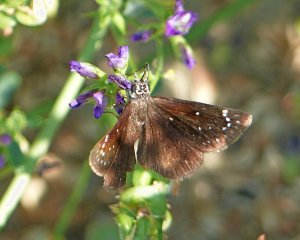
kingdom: Animalia
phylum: Arthropoda
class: Insecta
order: Lepidoptera
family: Hesperiidae
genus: Pholisora
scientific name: Pholisora catullus
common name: Common Sootywing
